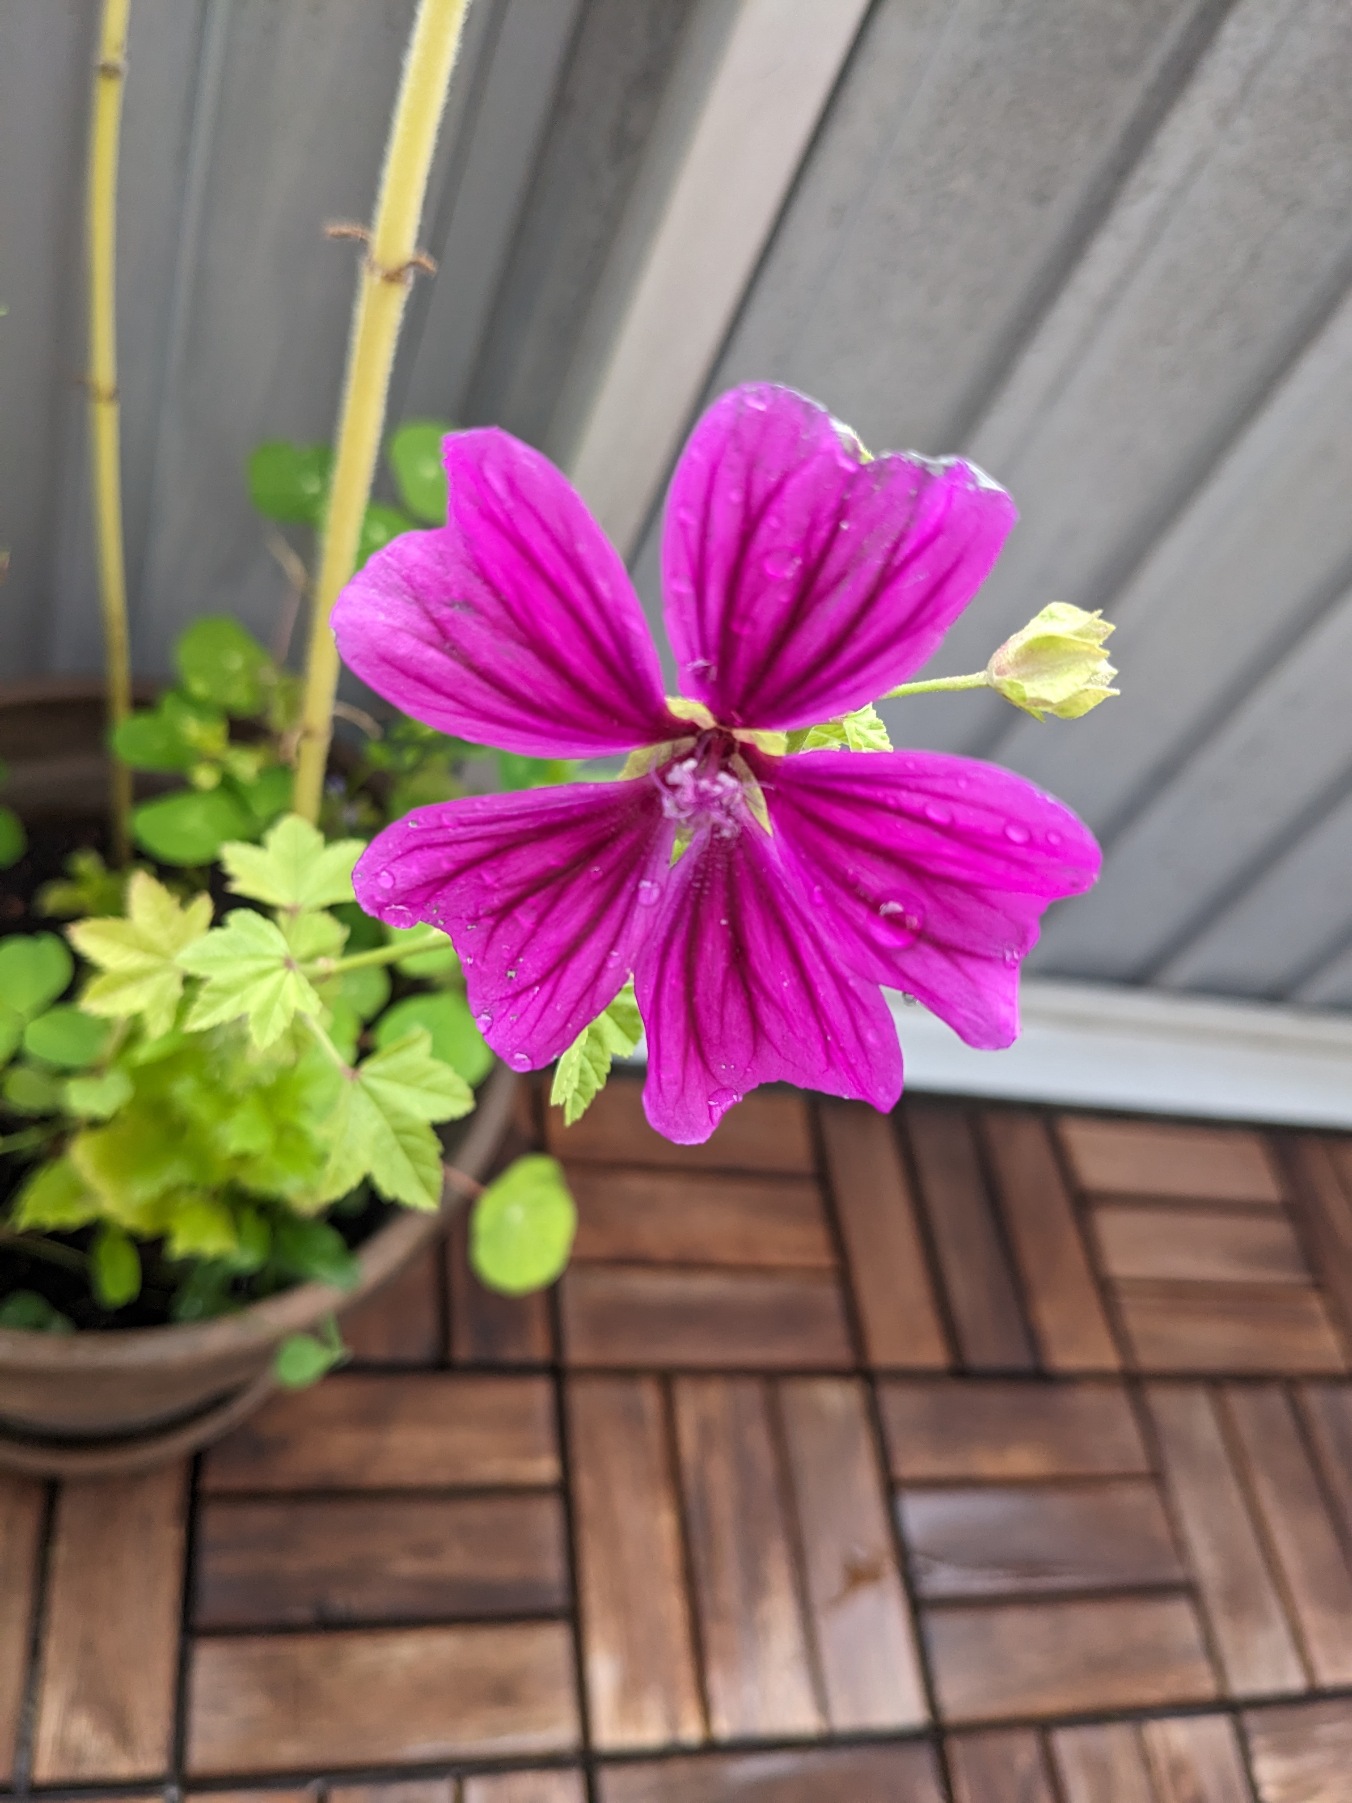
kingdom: Plantae
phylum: Tracheophyta
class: Magnoliopsida
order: Malvales
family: Malvaceae
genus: Malva
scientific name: Malva sylvestris
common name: Stor katost
